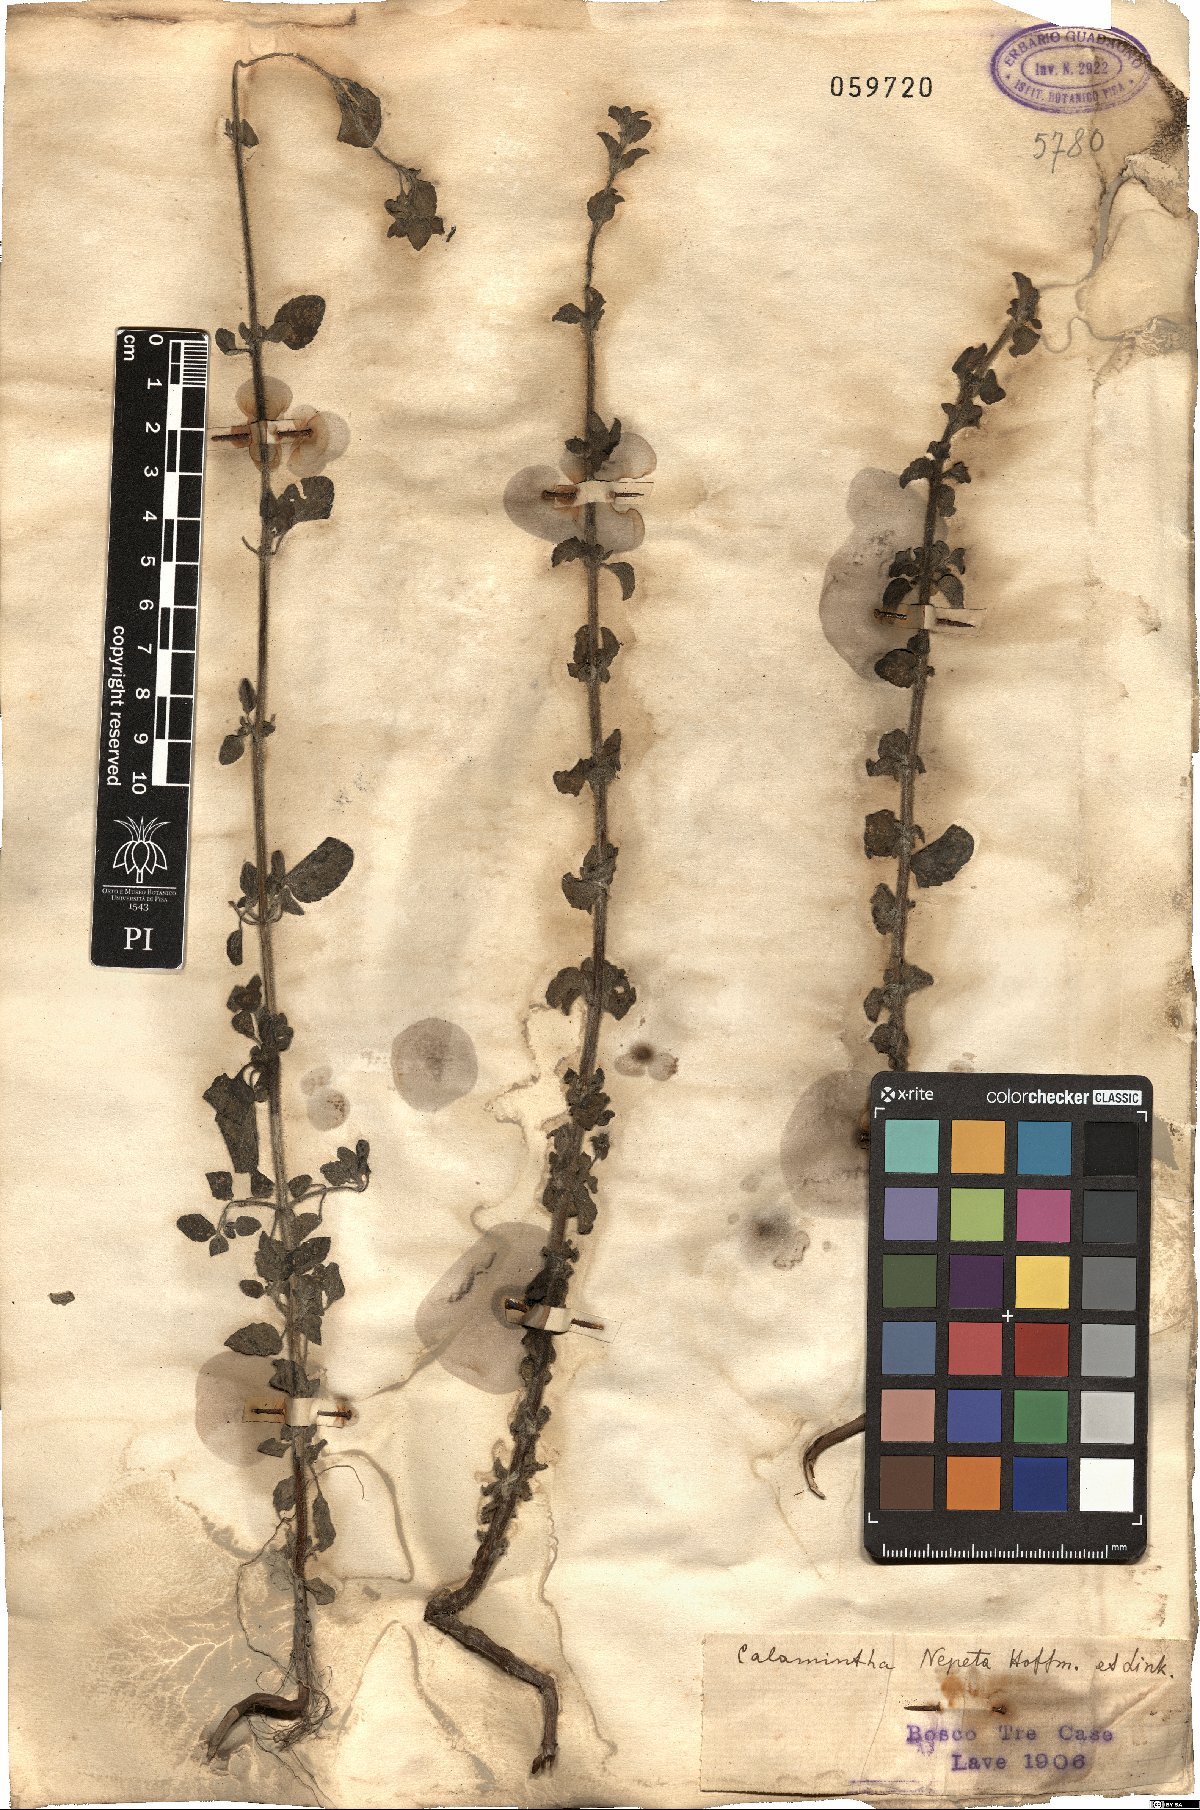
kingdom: Plantae
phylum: Tracheophyta
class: Magnoliopsida
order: Lamiales
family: Lamiaceae
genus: Clinopodium
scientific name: Clinopodium nepeta
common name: Lesser calamint
